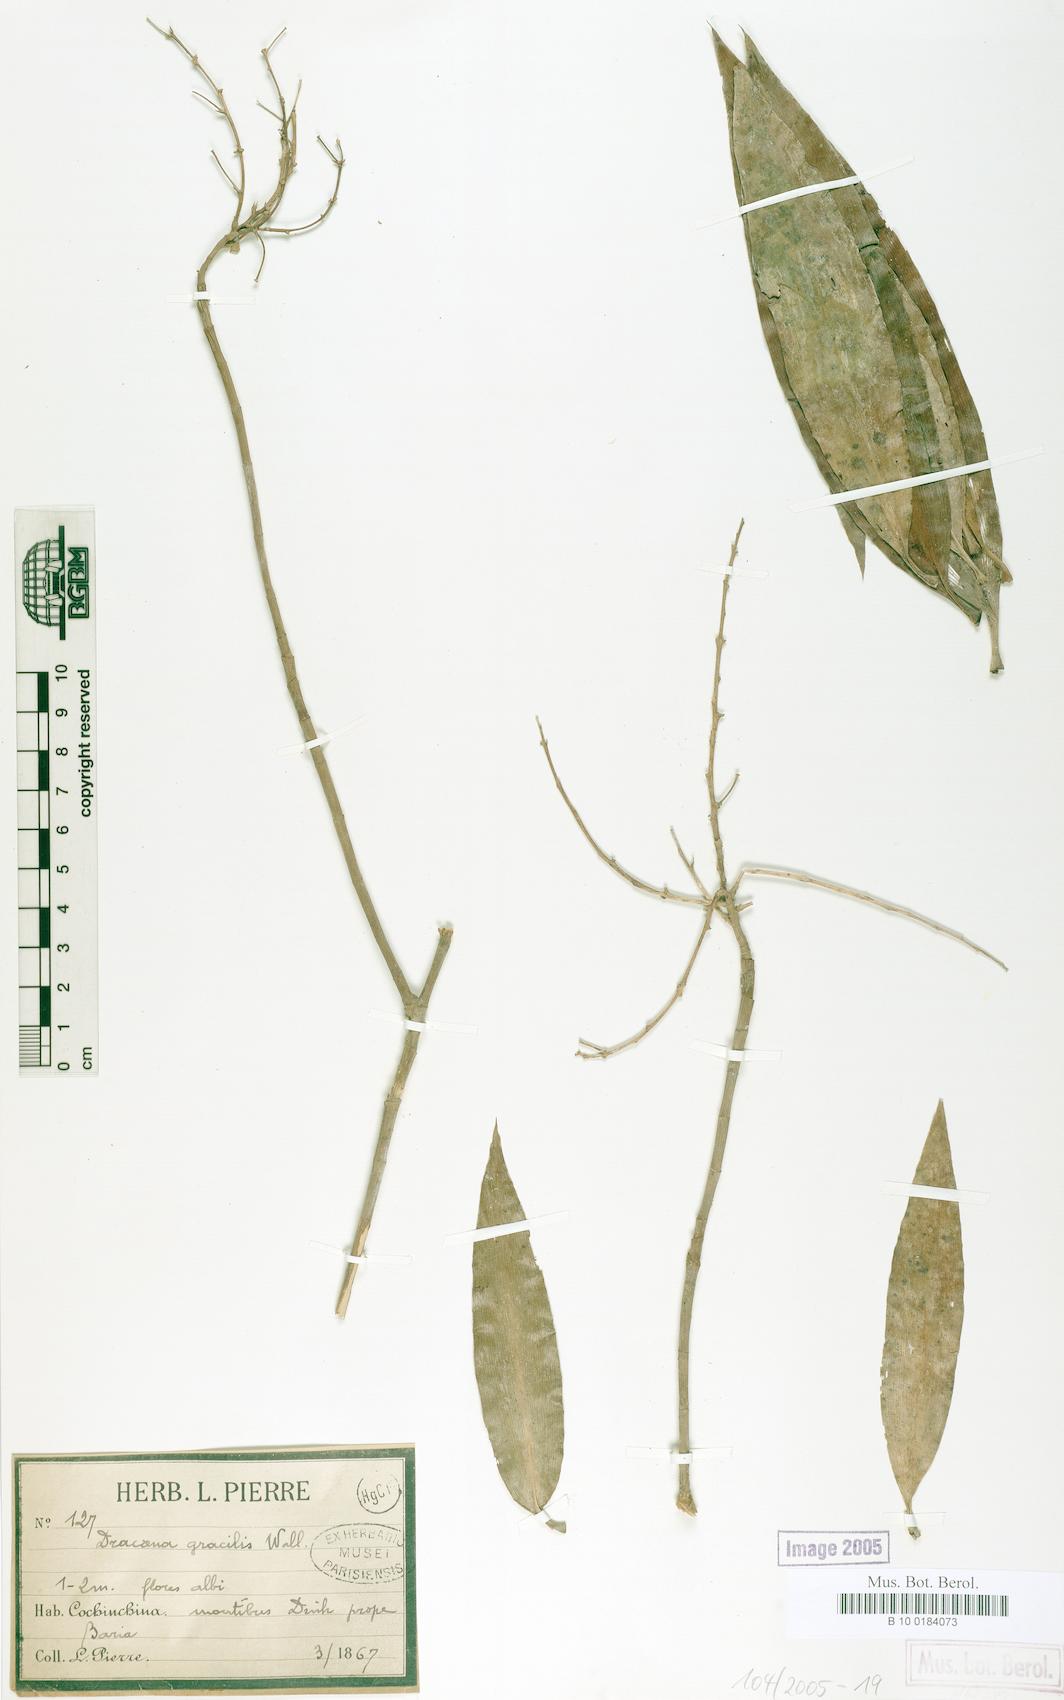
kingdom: Plantae
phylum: Tracheophyta
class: Liliopsida
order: Asparagales
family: Asparagaceae
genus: Dracaena
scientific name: Dracaena elliptica
